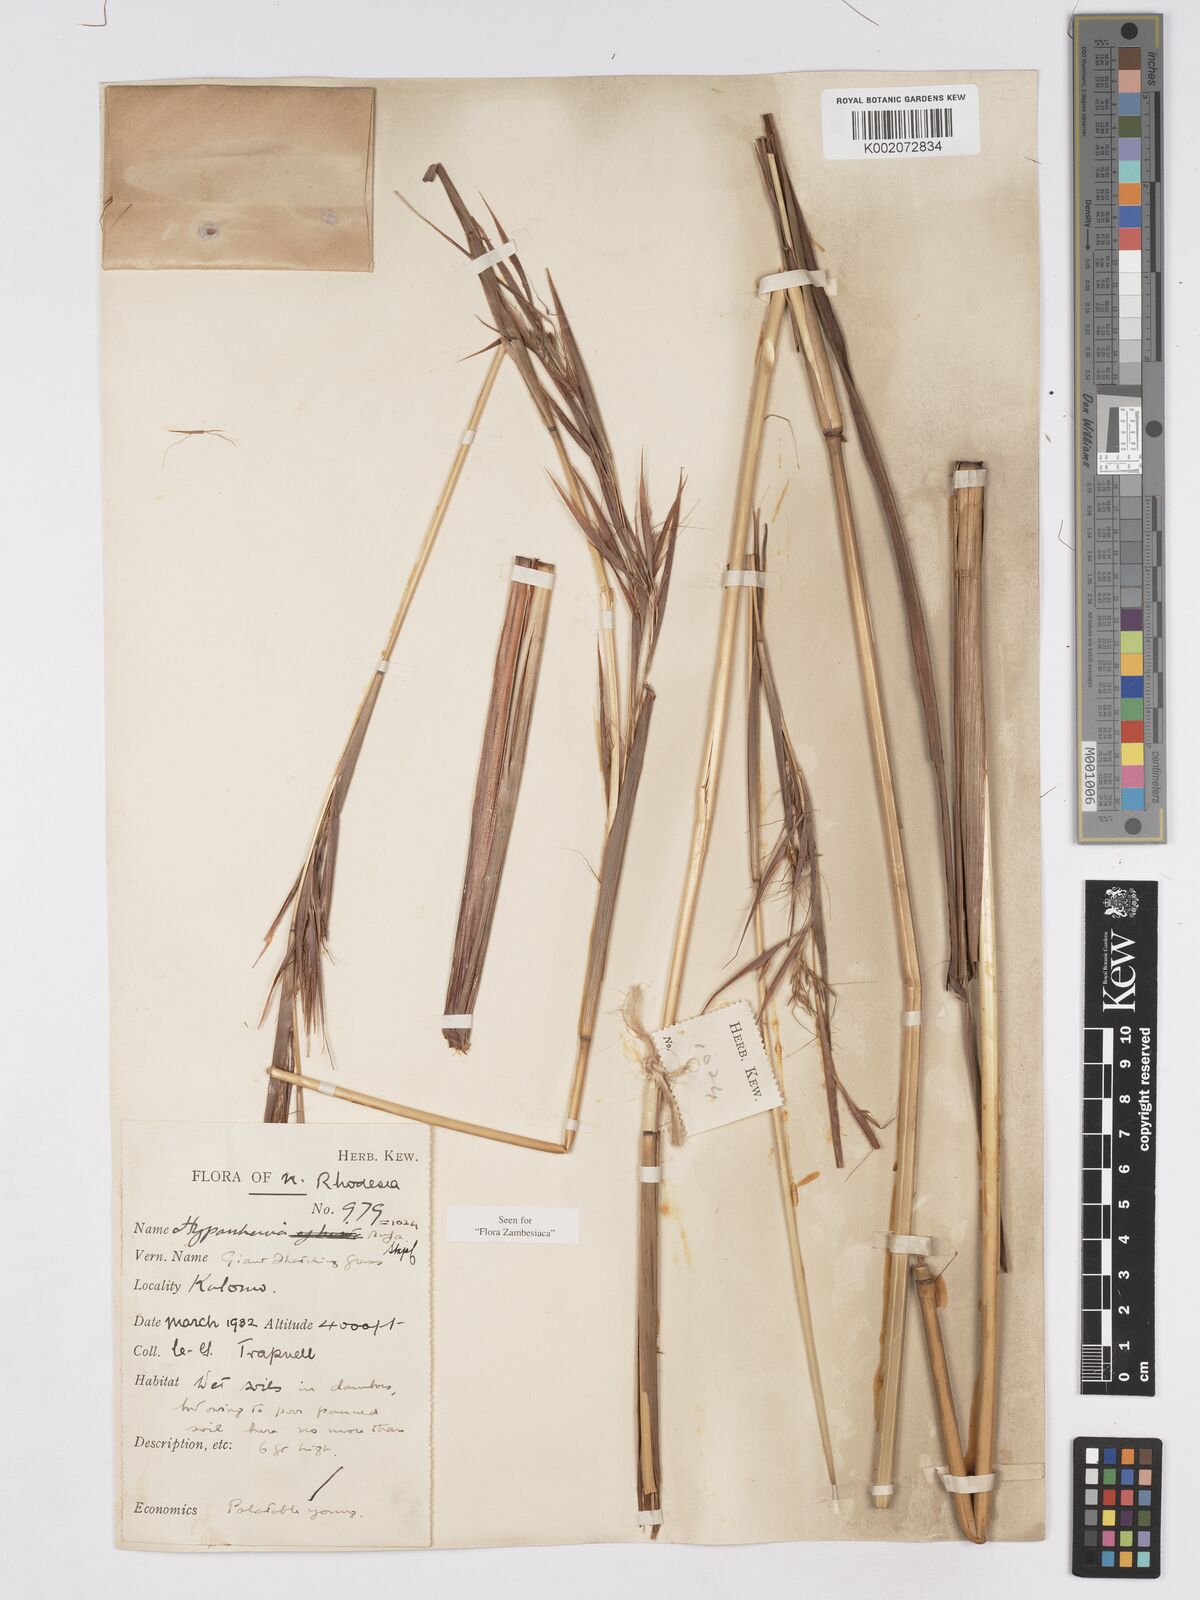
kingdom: Plantae
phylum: Tracheophyta
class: Liliopsida
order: Poales
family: Poaceae
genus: Hyparrhenia
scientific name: Hyparrhenia rufa
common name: Jaraguagrass
